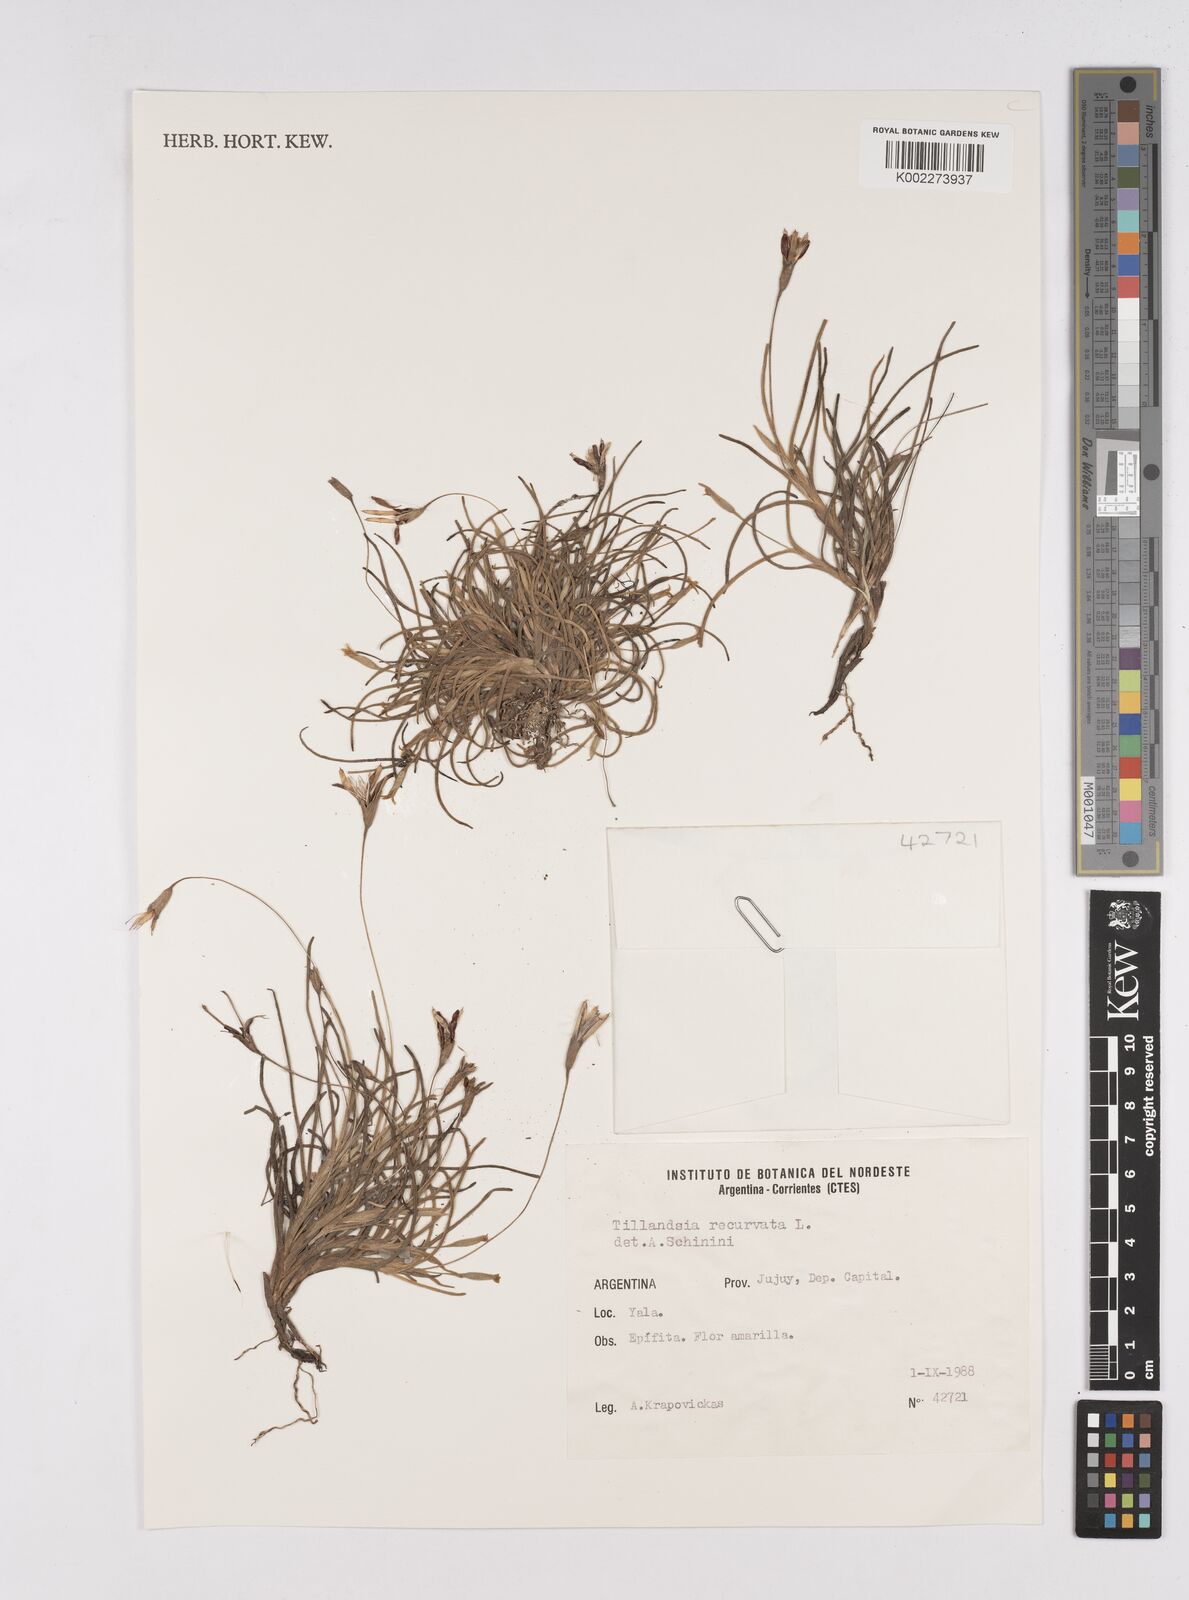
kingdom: Plantae
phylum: Tracheophyta
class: Liliopsida
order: Poales
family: Bromeliaceae
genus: Tillandsia
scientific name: Tillandsia recurvata
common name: Small ballmoss
